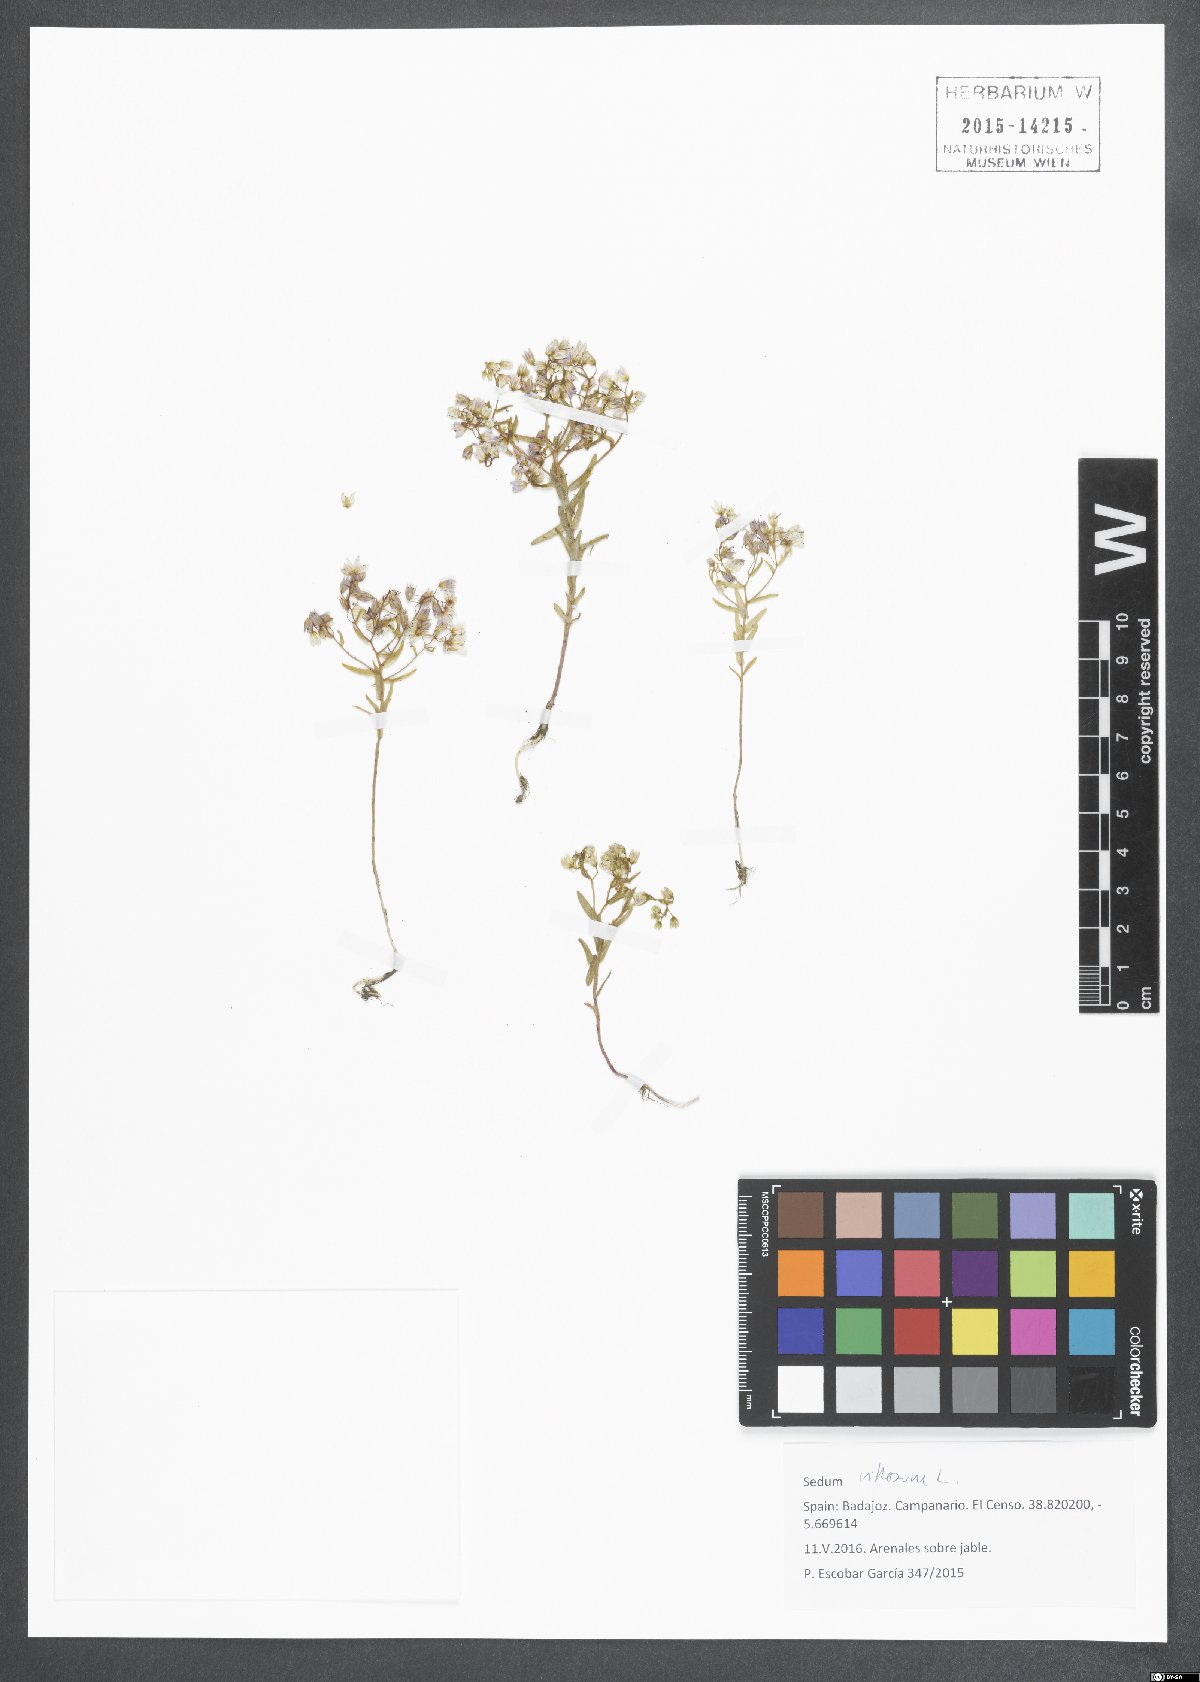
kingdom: Plantae
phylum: Tracheophyta
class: Magnoliopsida
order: Saxifragales
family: Crassulaceae
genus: Sedum
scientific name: Sedum villosum
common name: Hairy stonecrop
